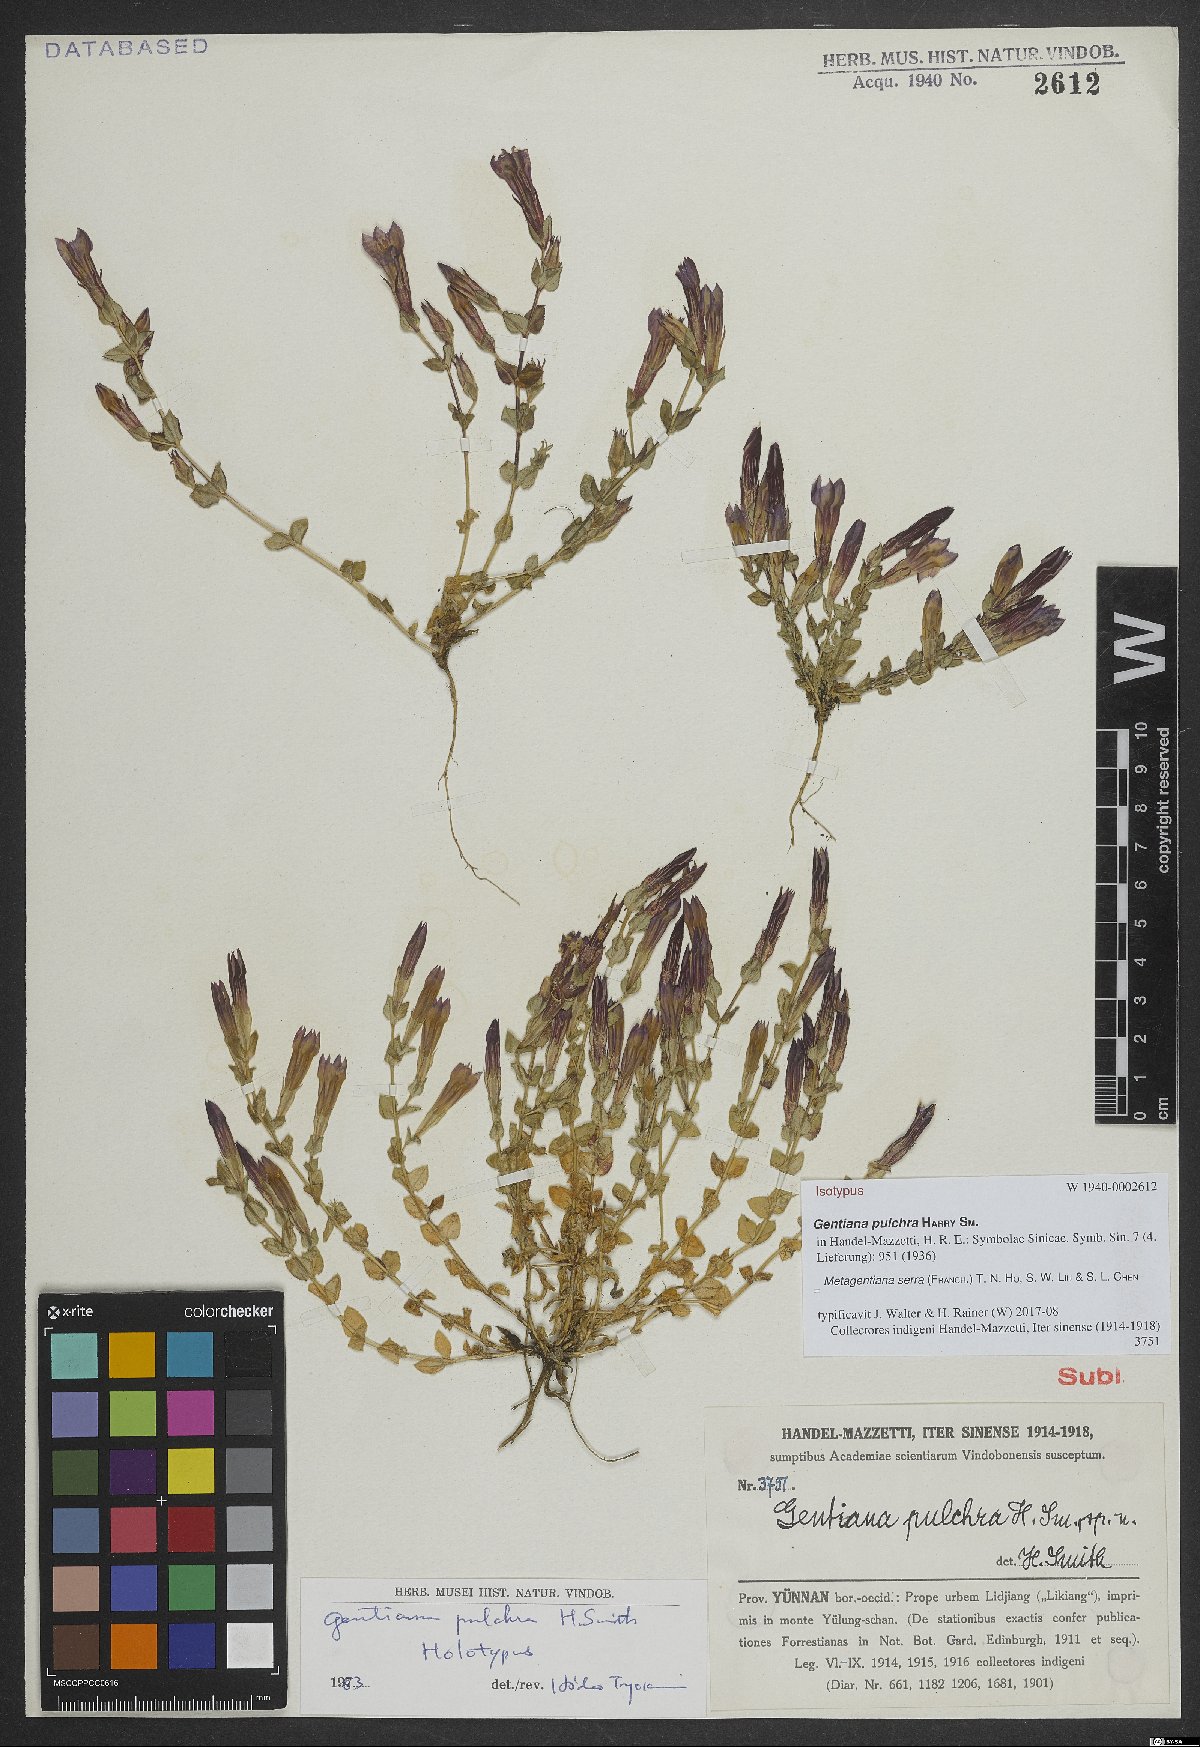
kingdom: Plantae
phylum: Tracheophyta
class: Magnoliopsida
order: Gentianales
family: Gentianaceae
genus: Metagentiana
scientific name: Metagentiana serra
